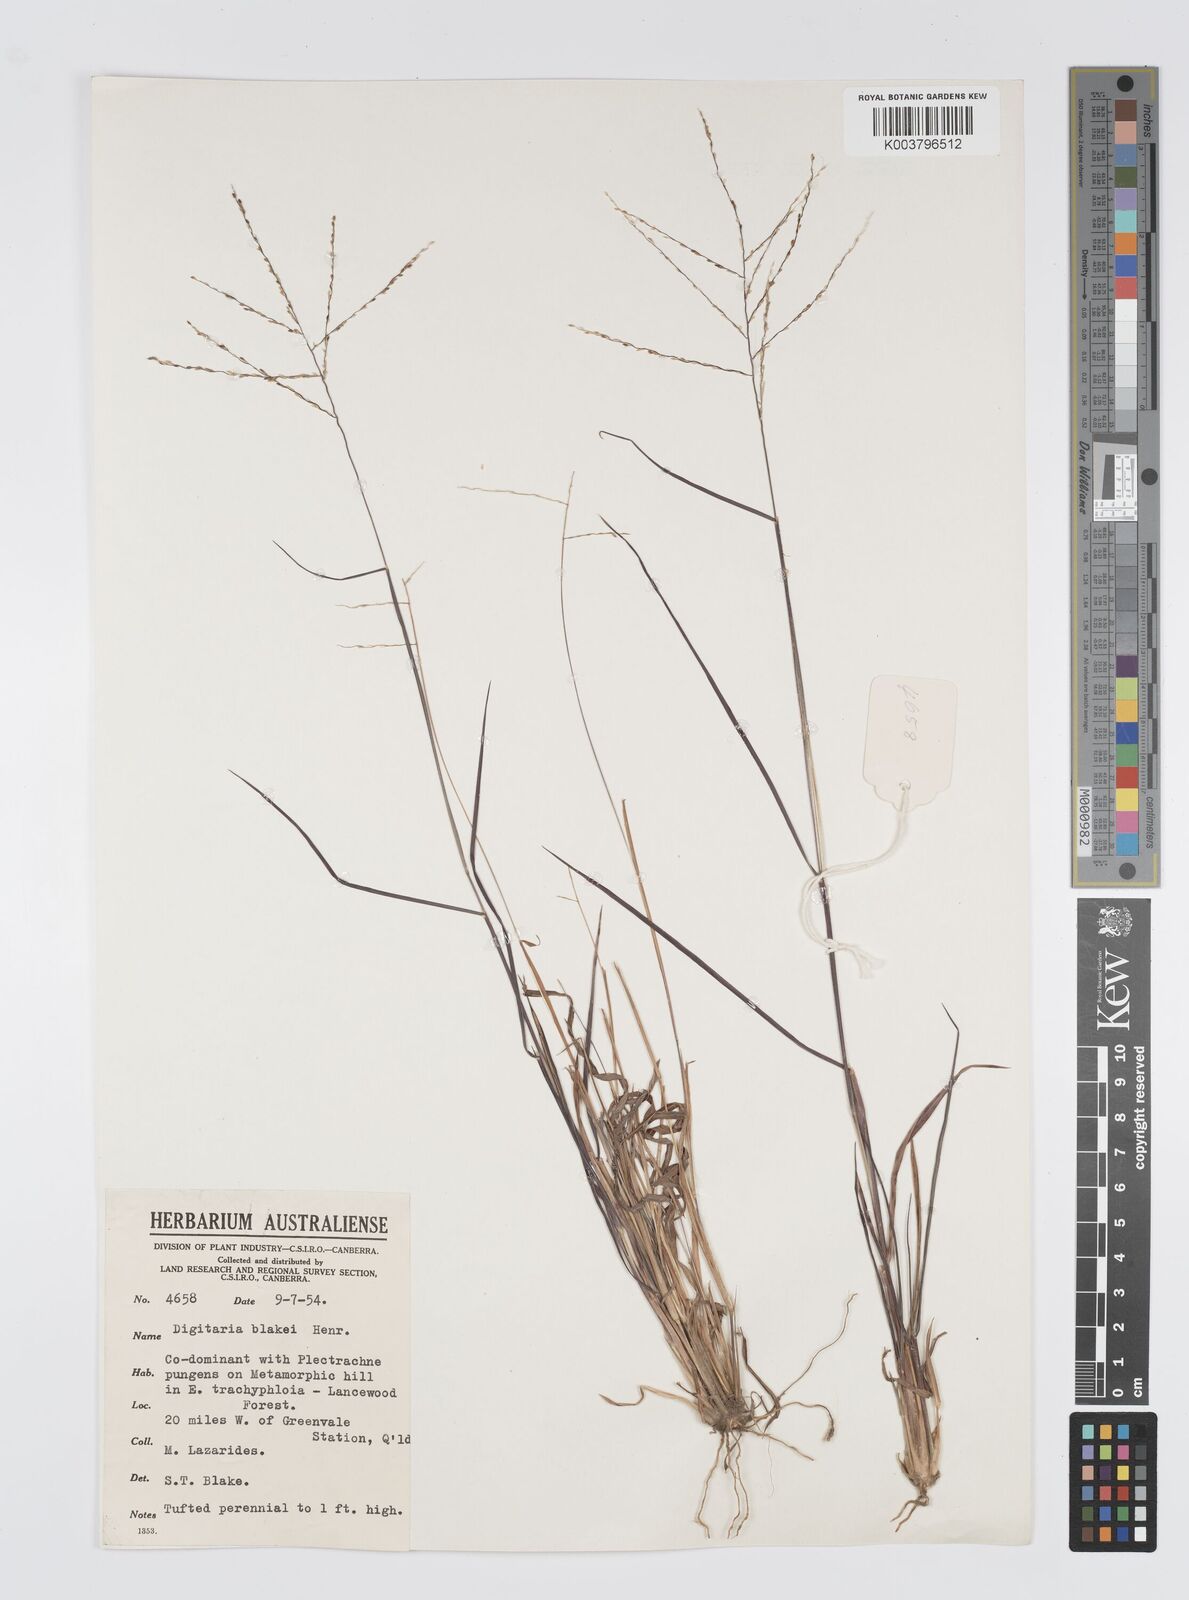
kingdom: Plantae
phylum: Tracheophyta
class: Liliopsida
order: Poales
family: Poaceae
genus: Digitaria
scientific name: Digitaria orbata
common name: Crabgrass
